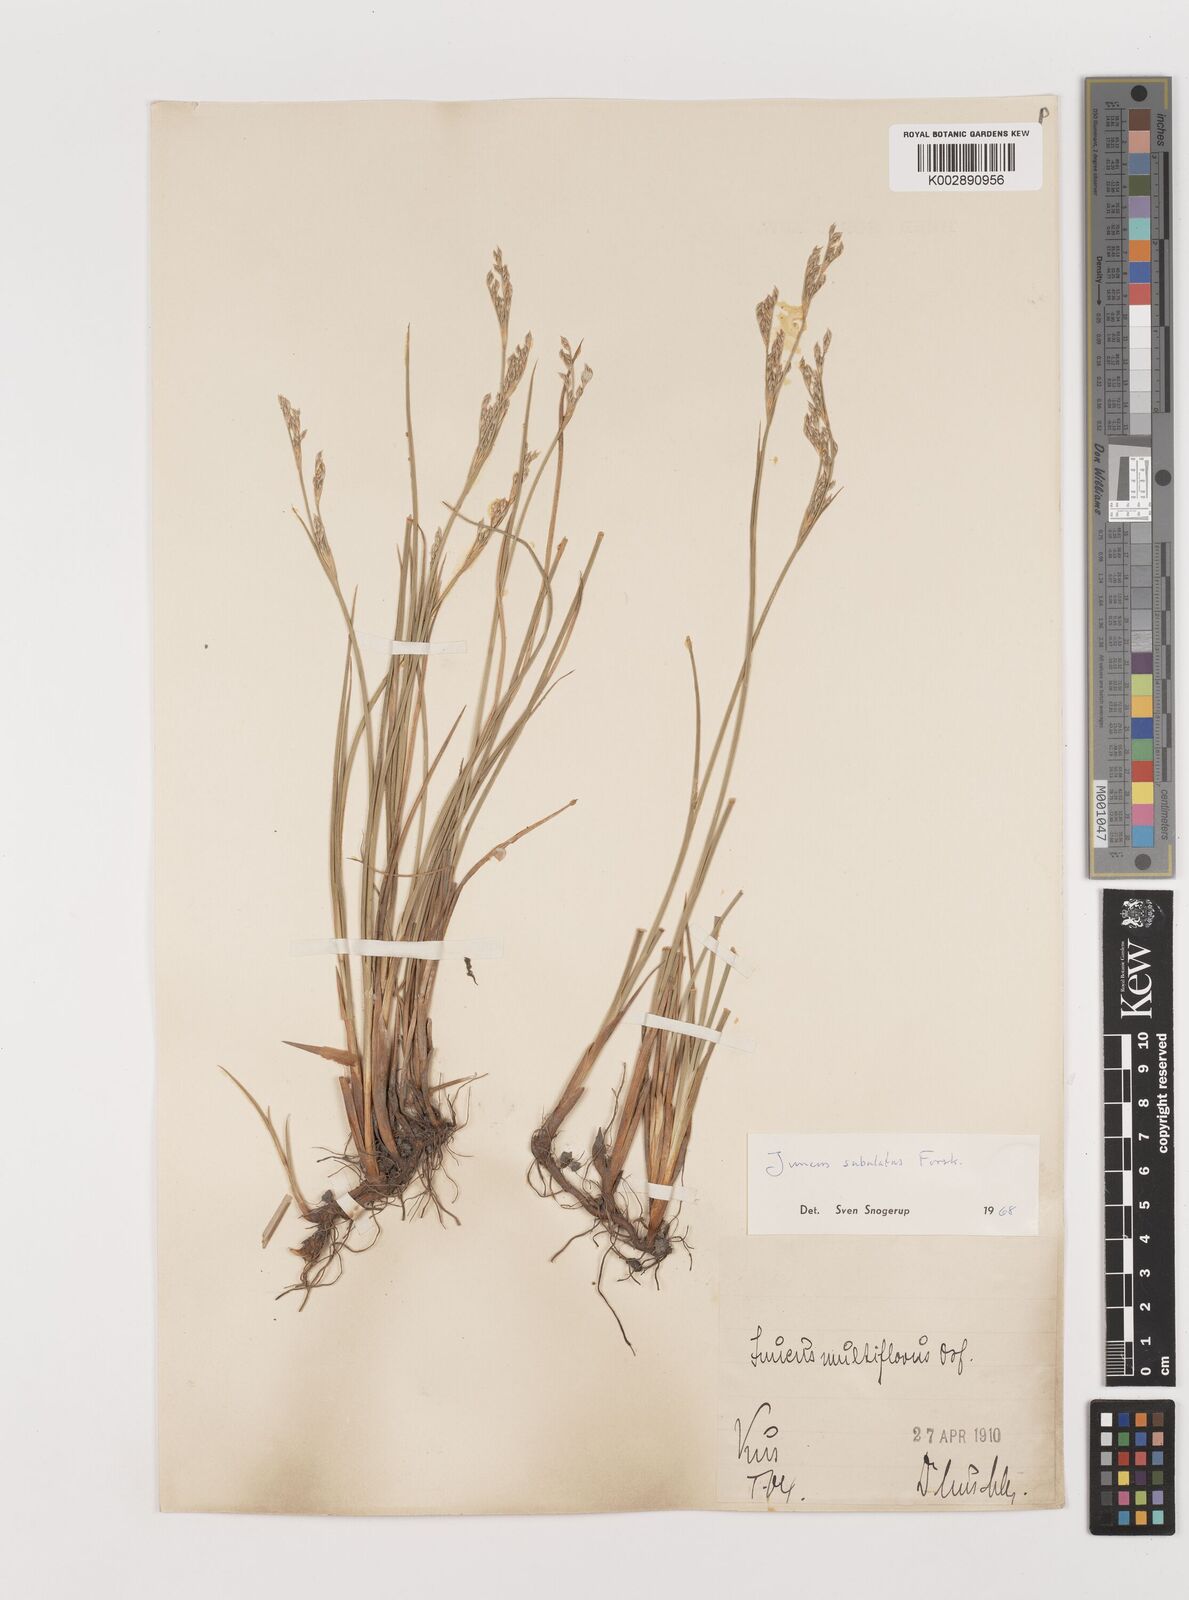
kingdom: Plantae
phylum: Tracheophyta
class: Liliopsida
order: Poales
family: Juncaceae
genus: Juncus
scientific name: Juncus subulatus
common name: Somerset rush
